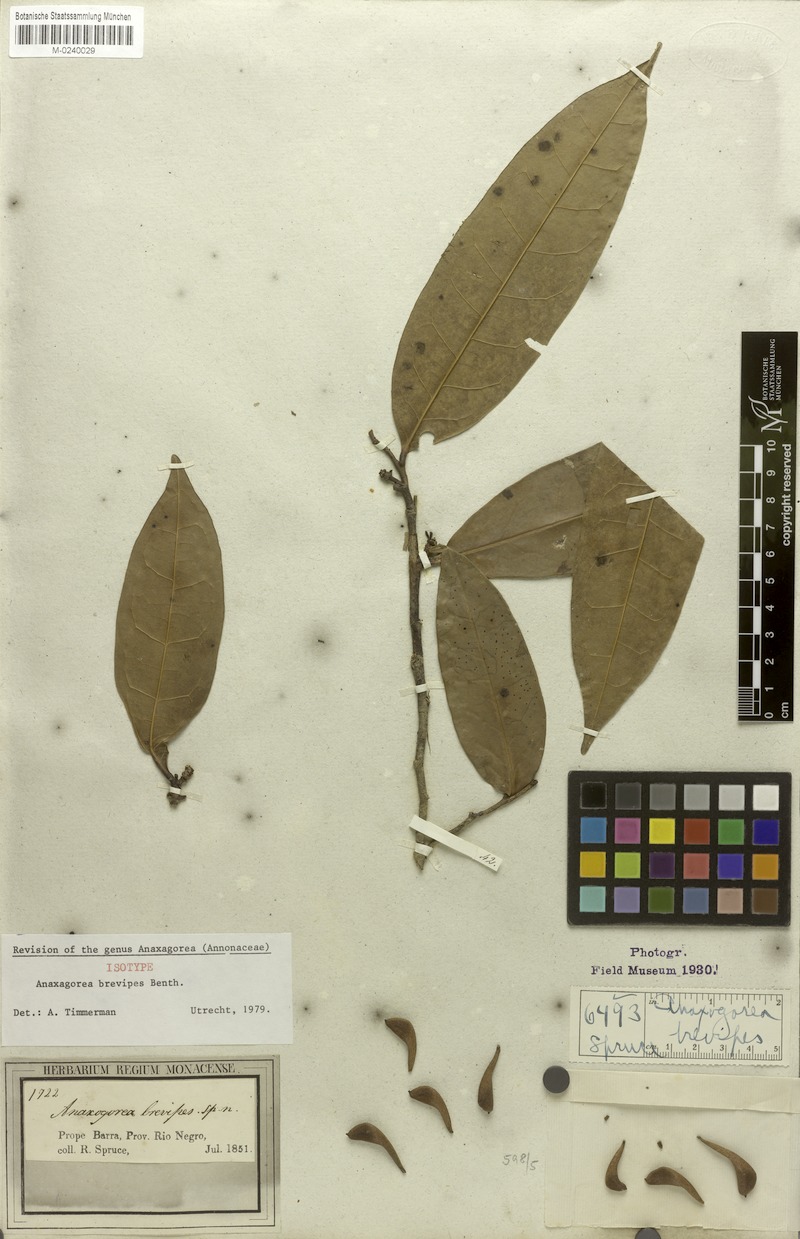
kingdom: Plantae
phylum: Tracheophyta
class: Magnoliopsida
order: Magnoliales
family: Annonaceae
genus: Anaxagorea
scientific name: Anaxagorea brevipes
